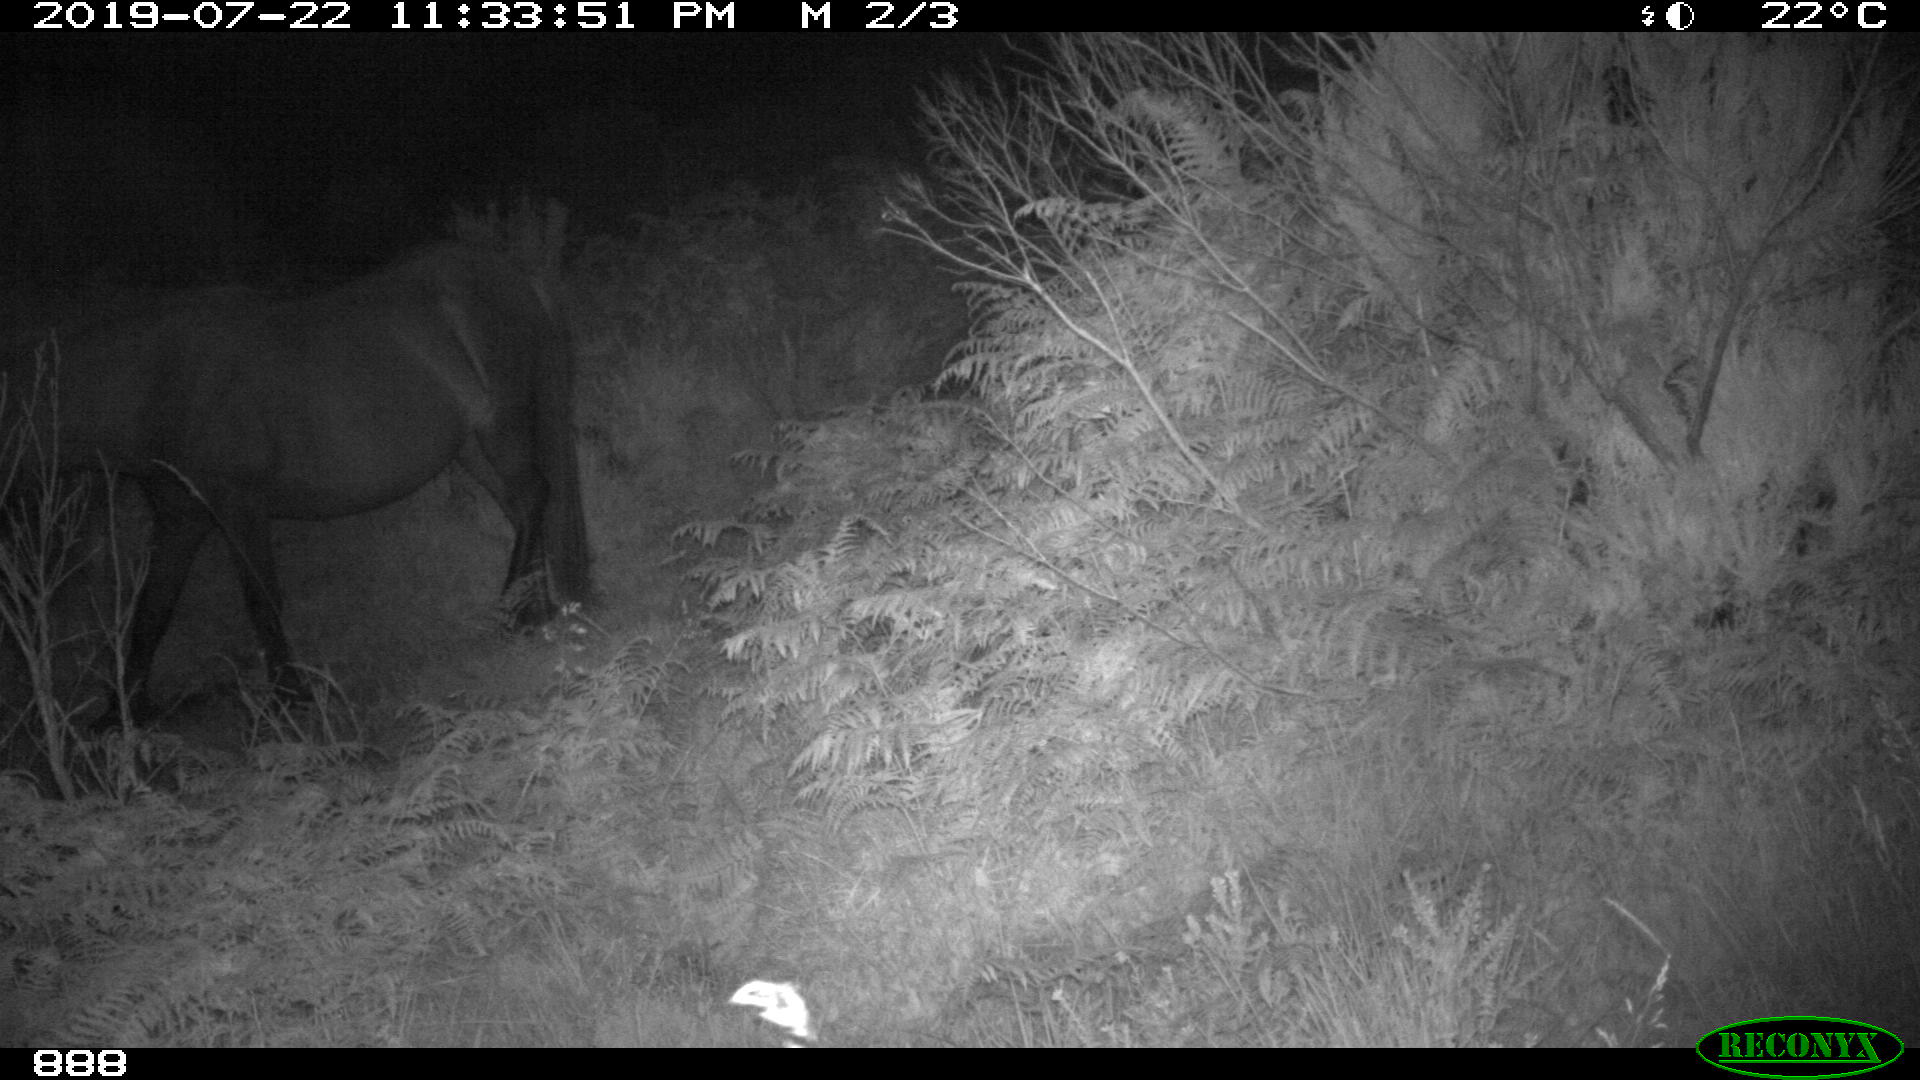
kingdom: Animalia
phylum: Chordata
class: Mammalia
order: Perissodactyla
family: Equidae
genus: Equus
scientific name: Equus caballus
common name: Horse
